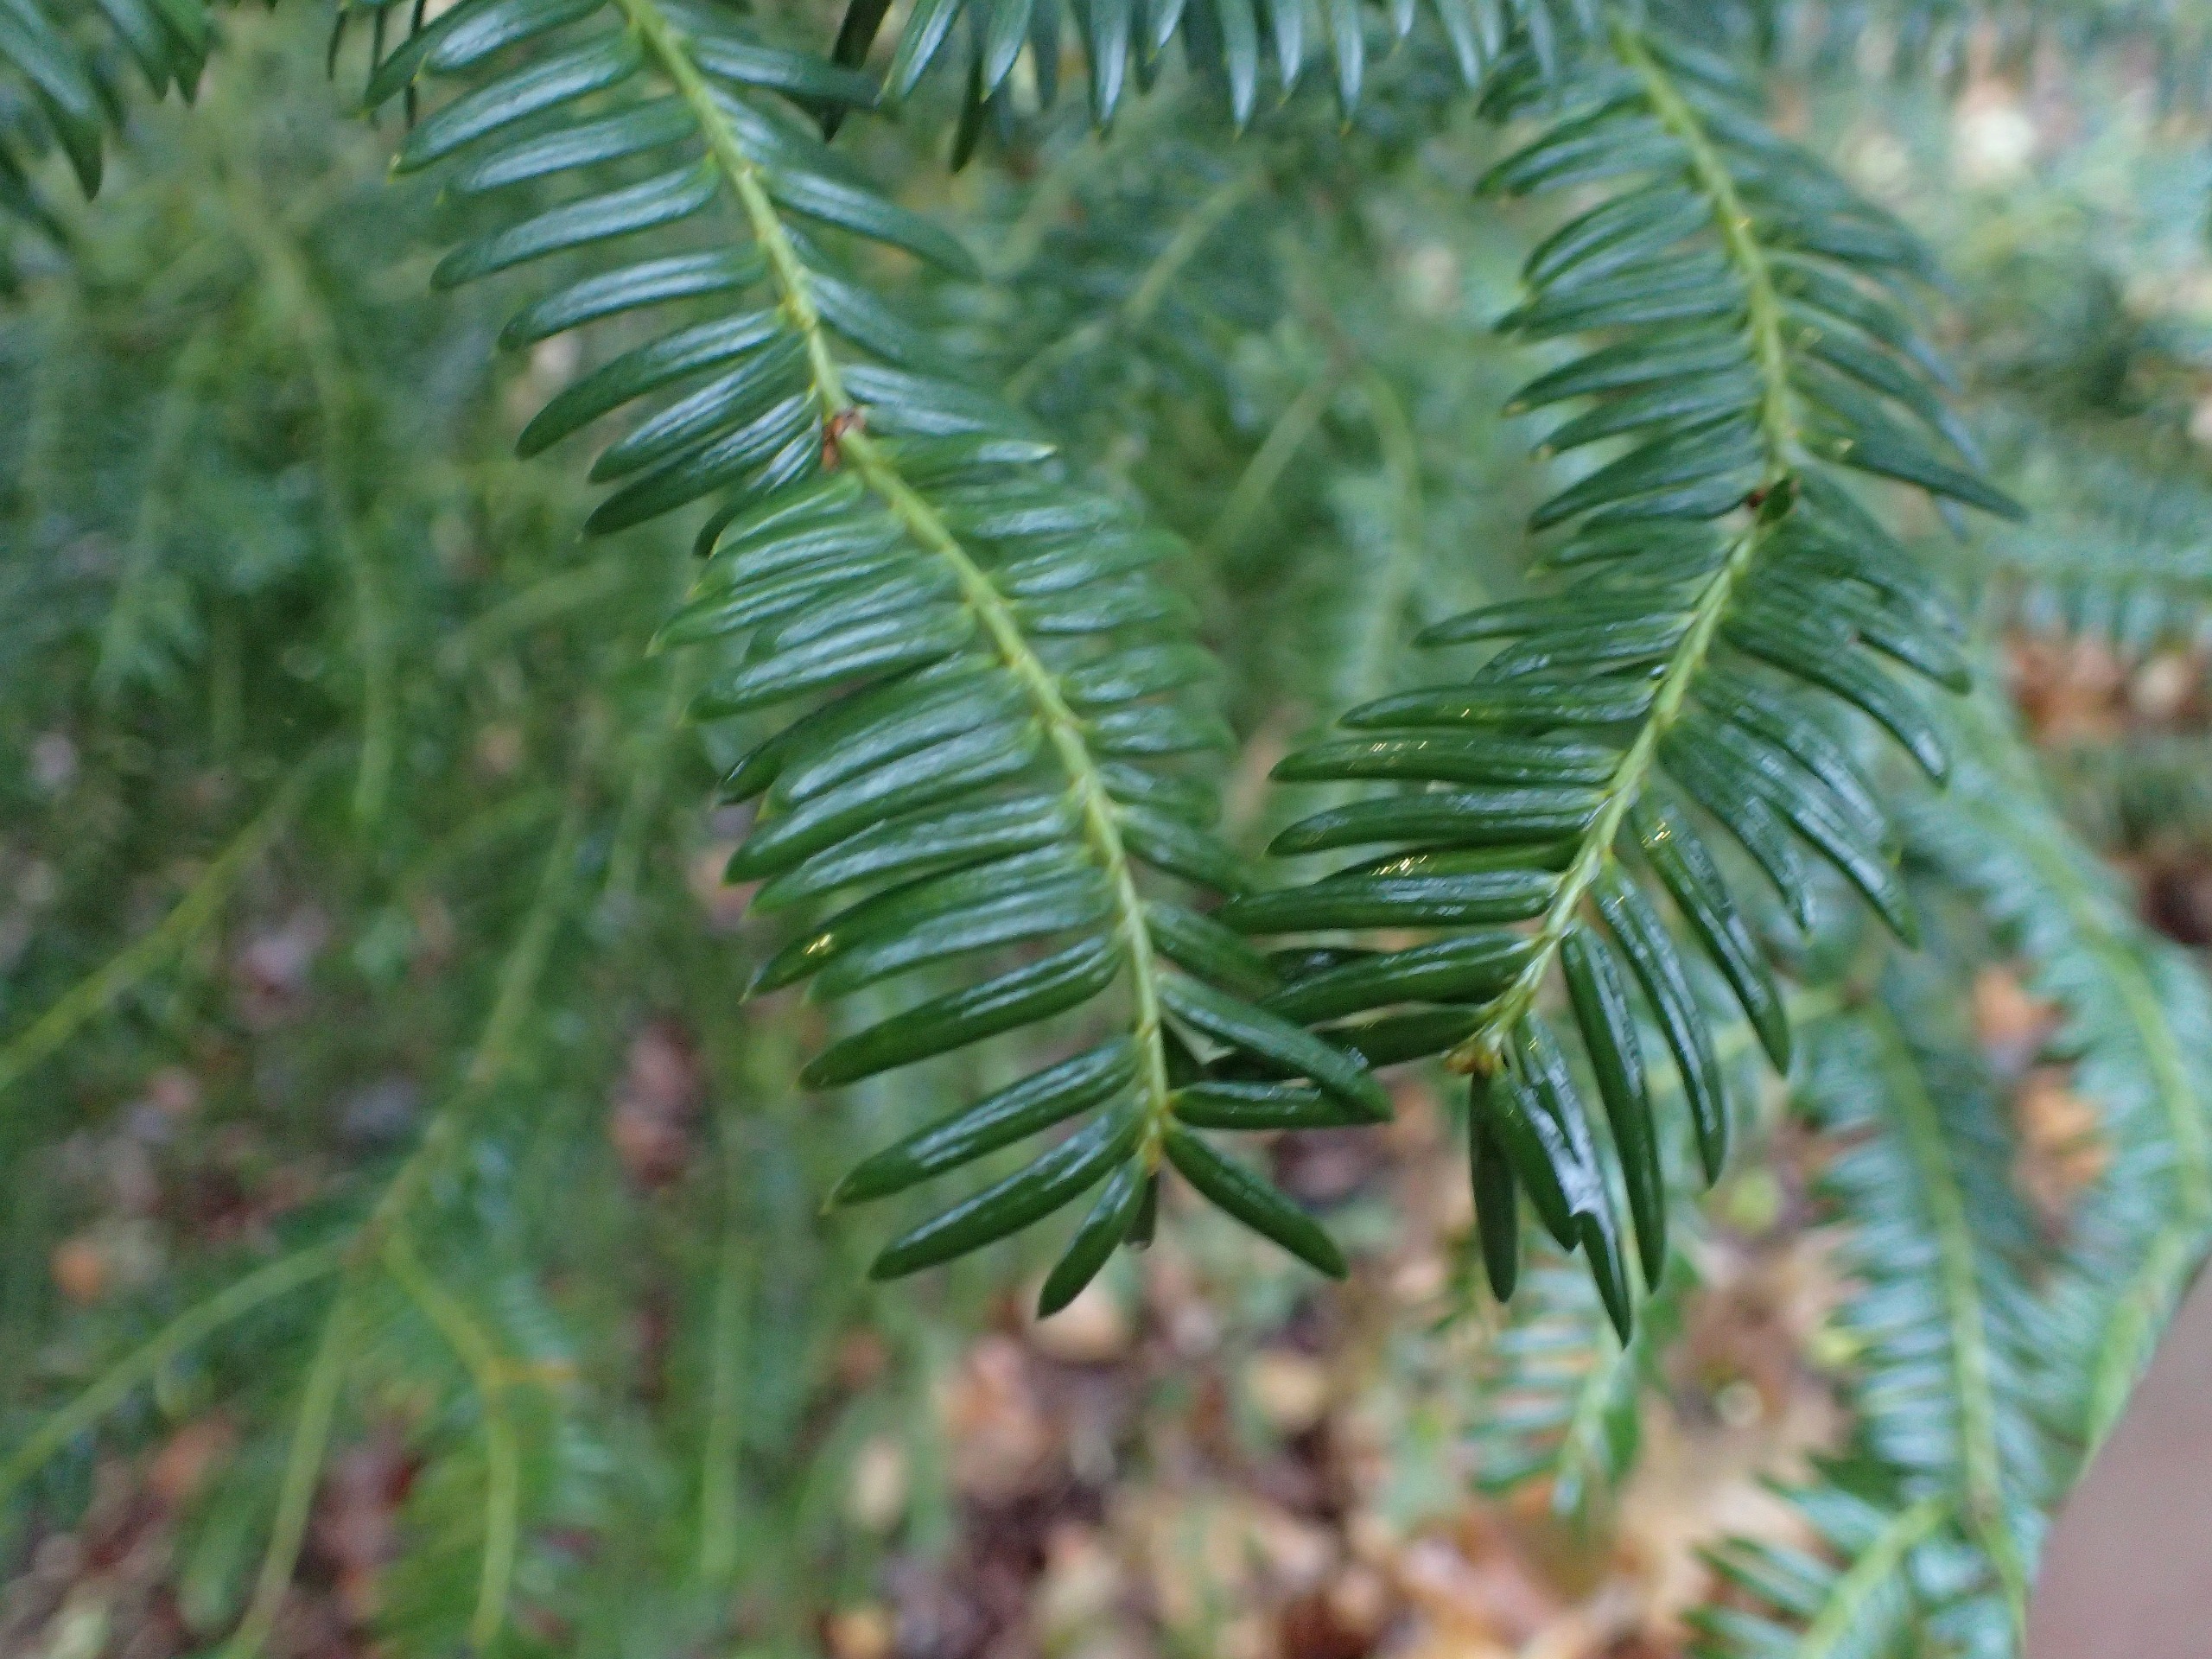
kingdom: Plantae
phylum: Tracheophyta
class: Pinopsida
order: Pinales
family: Taxaceae
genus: Taxus
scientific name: Taxus baccata
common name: Almindelig taks
